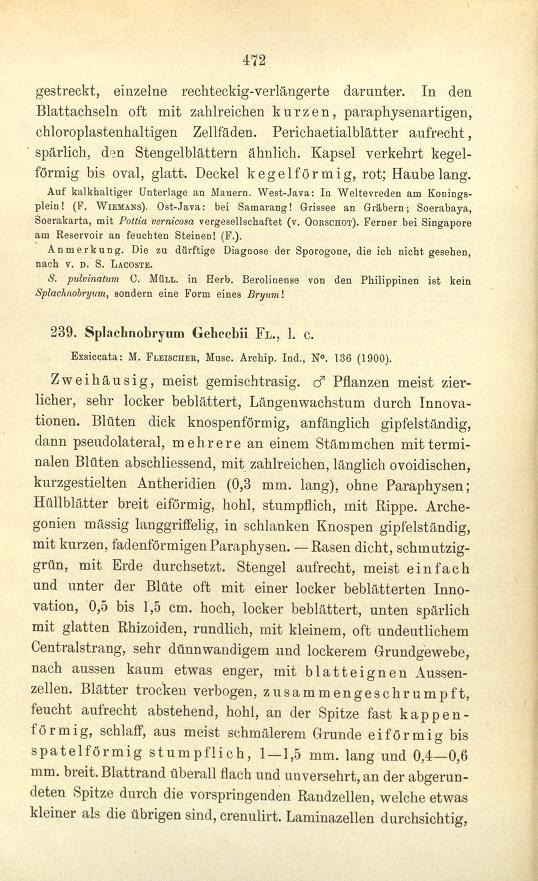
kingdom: Plantae
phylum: Bryophyta
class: Bryopsida
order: Pottiales
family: Splachnobryaceae
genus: Splachnobryum
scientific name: Splachnobryum obtusum
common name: Splachnobryum moss
